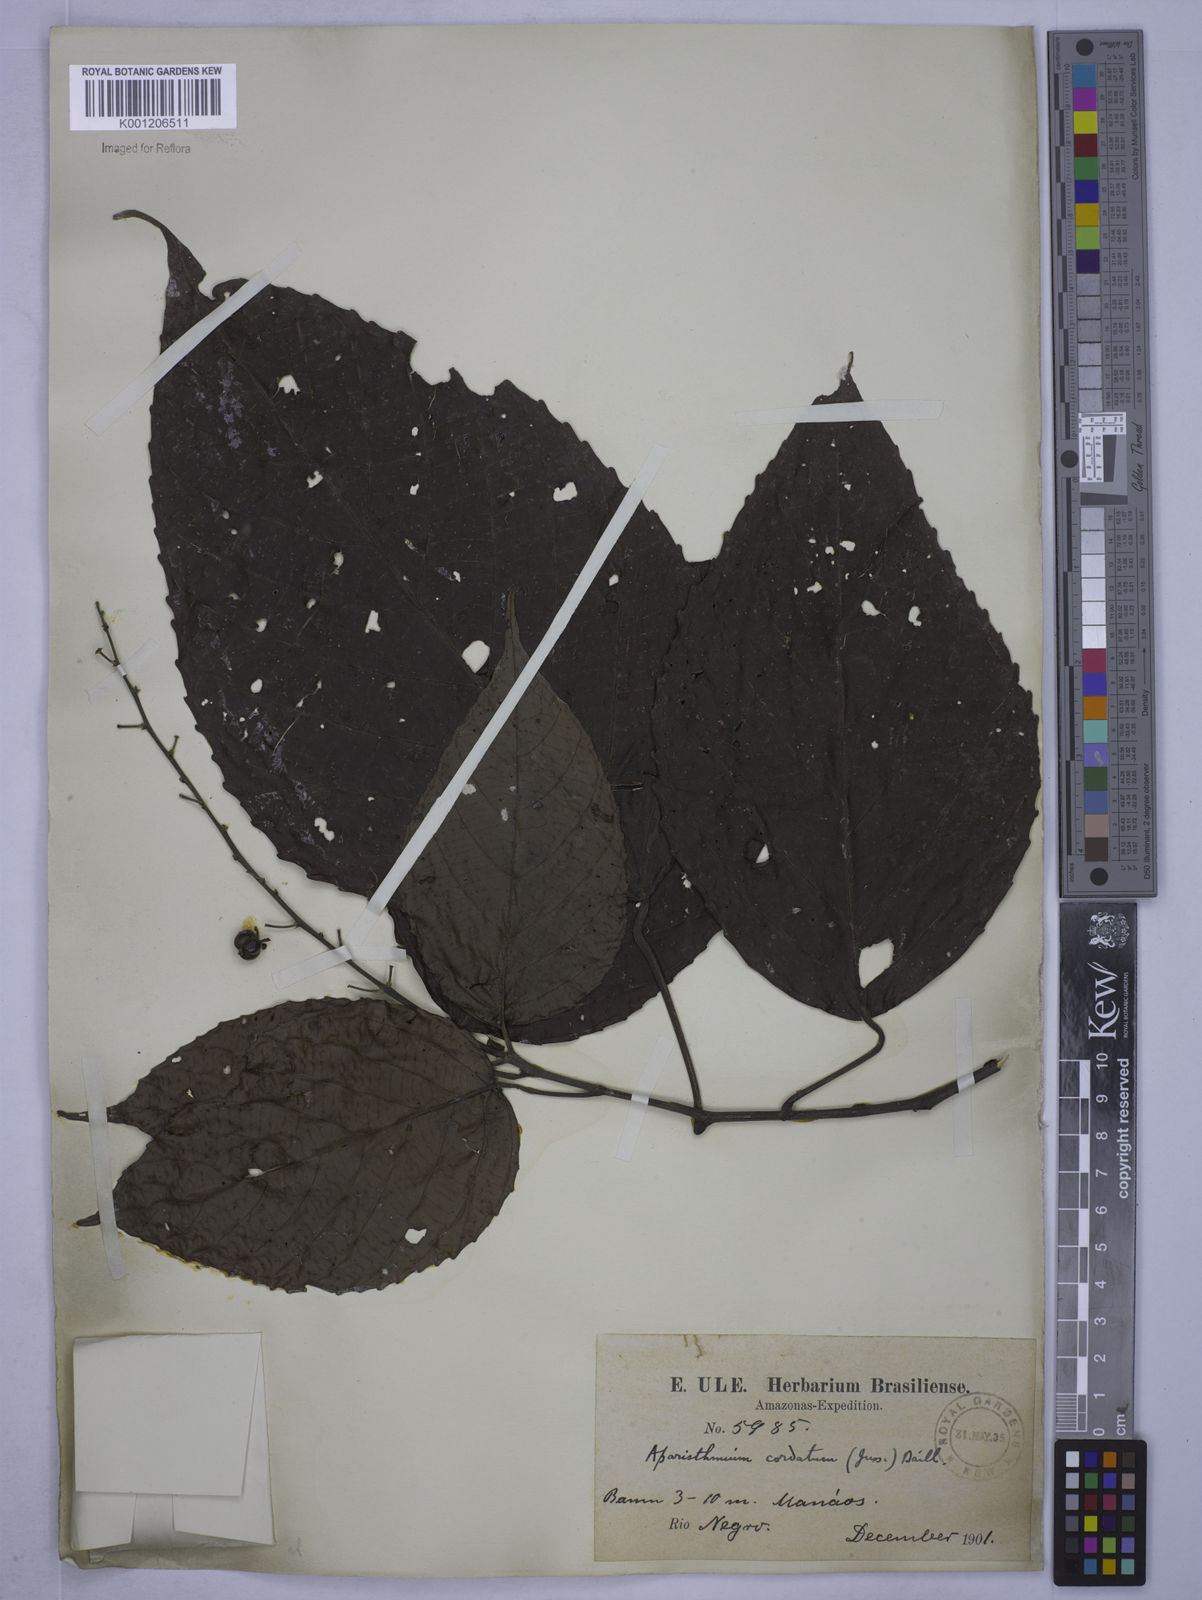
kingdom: Plantae
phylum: Tracheophyta
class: Magnoliopsida
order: Malpighiales
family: Euphorbiaceae
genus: Aparisthmium
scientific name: Aparisthmium cordatum
